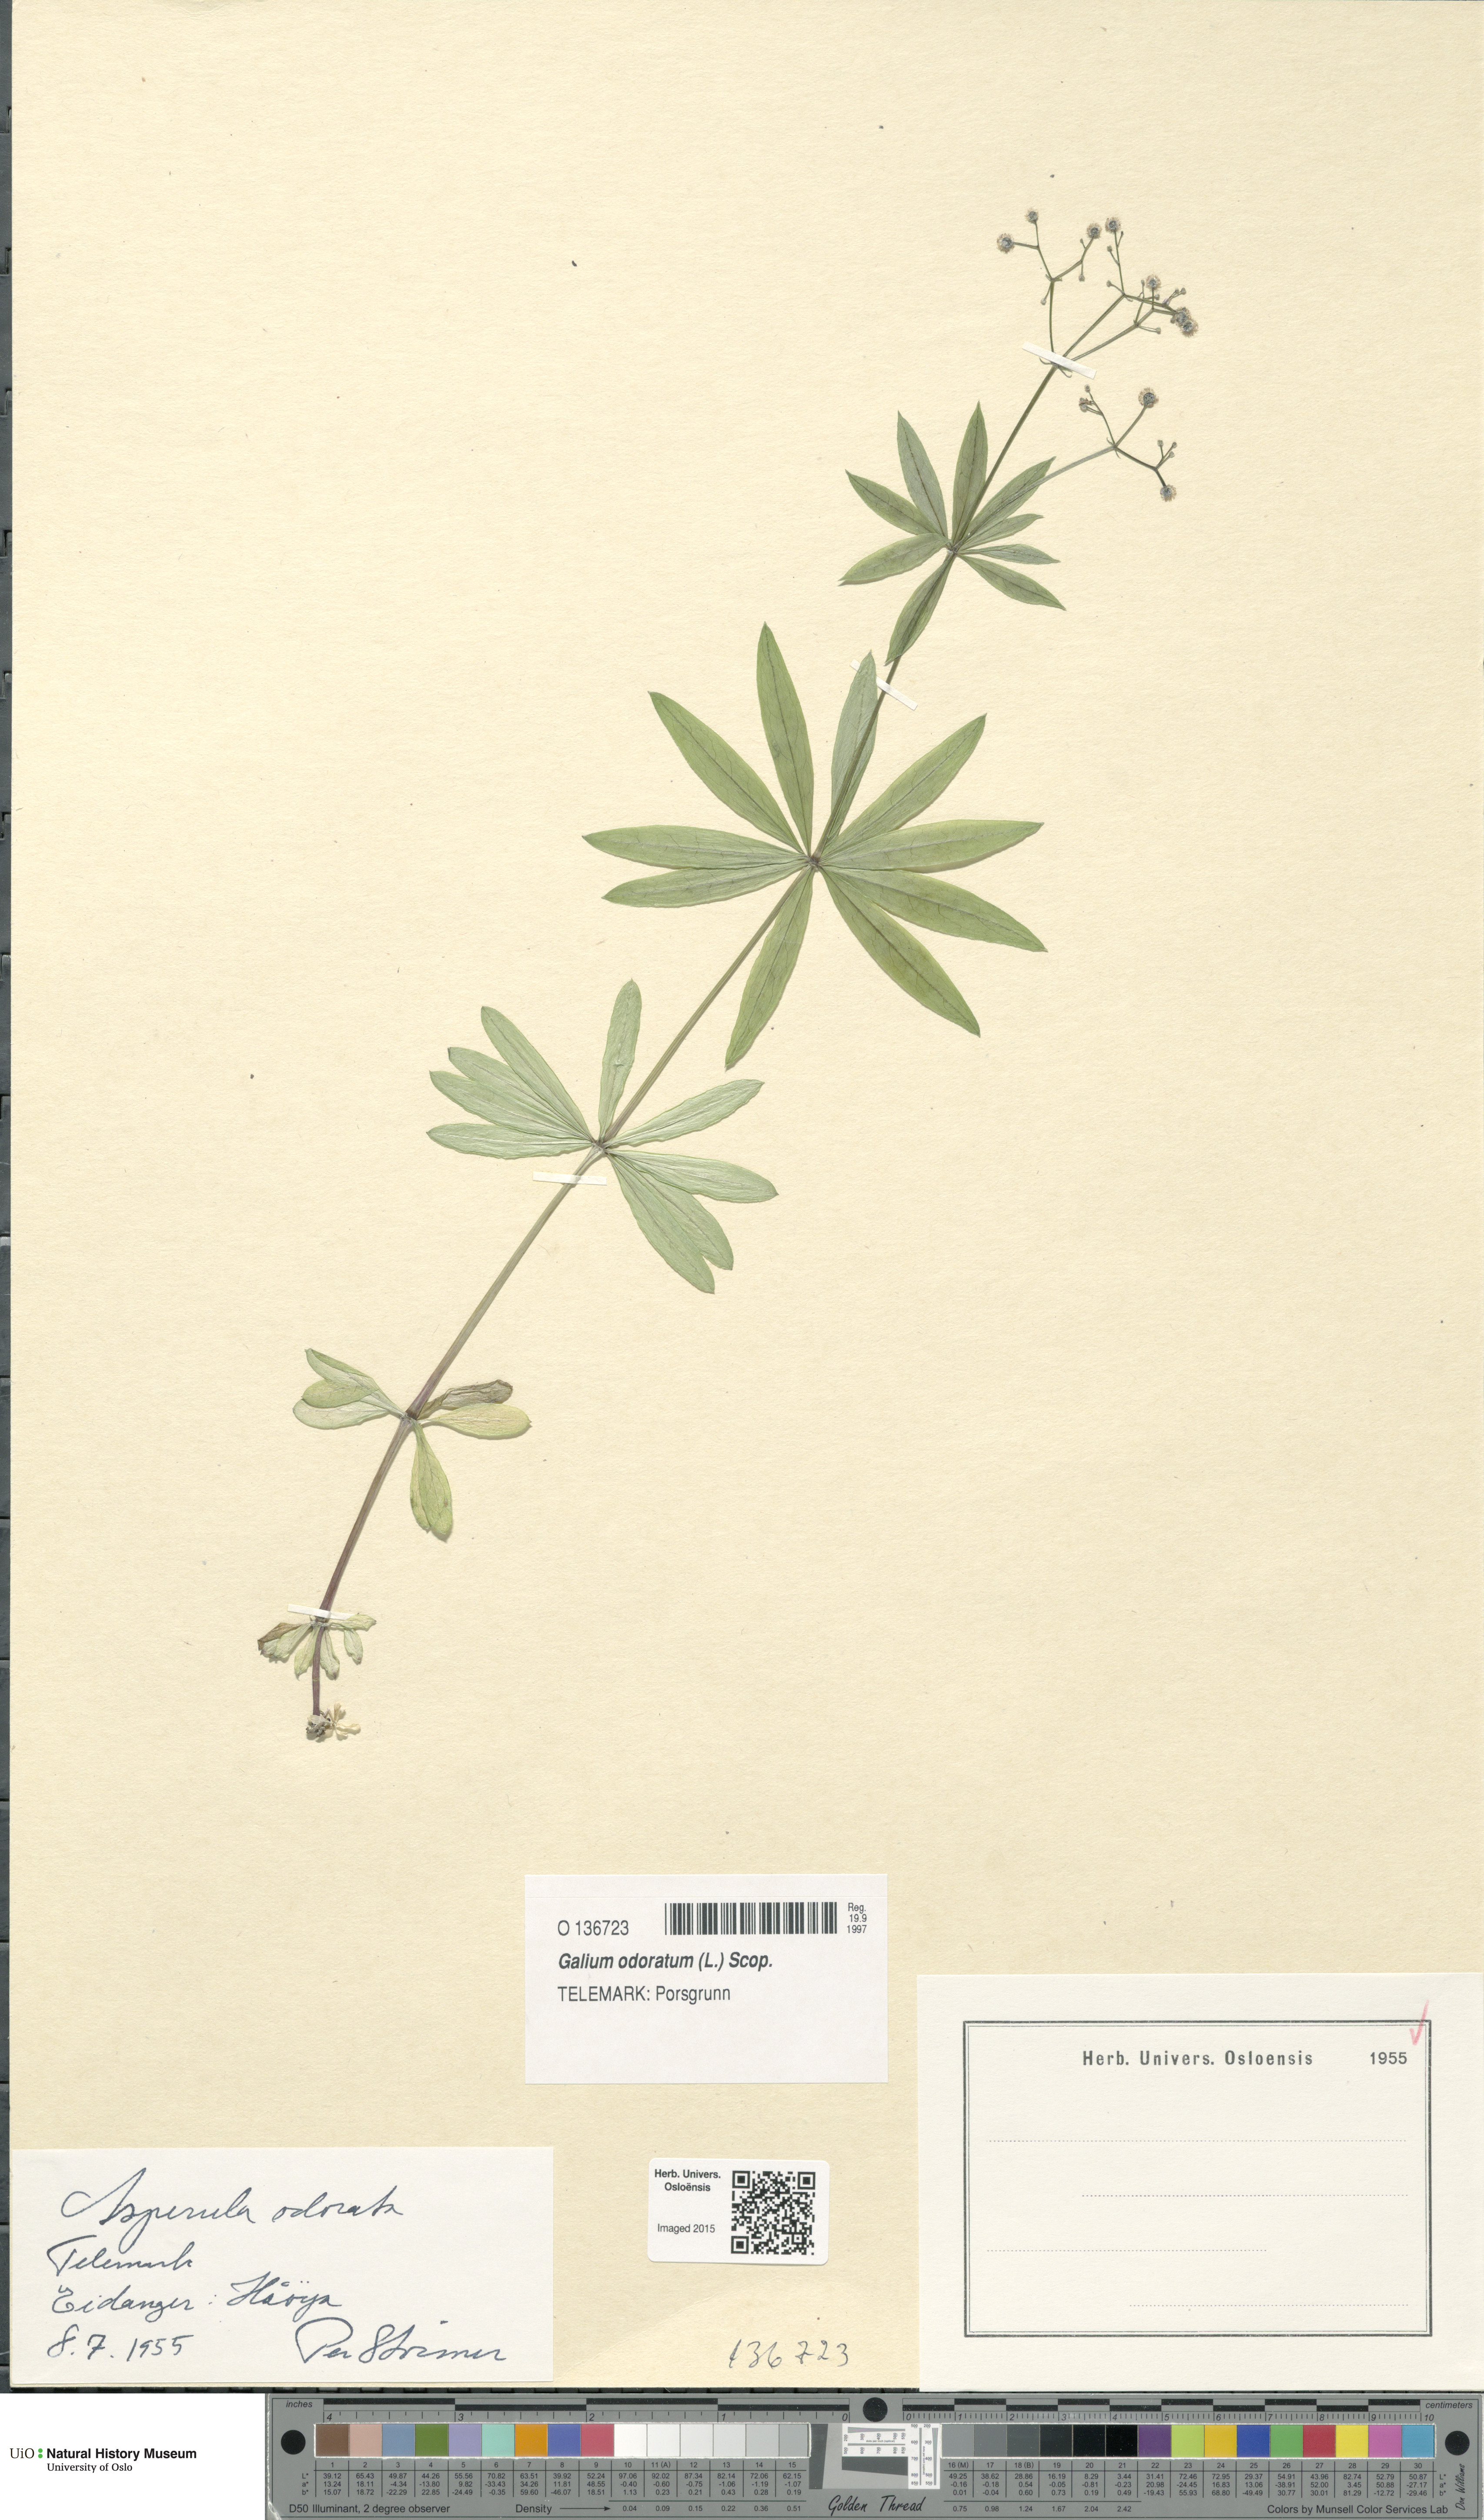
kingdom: Plantae
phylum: Tracheophyta
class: Magnoliopsida
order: Gentianales
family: Rubiaceae
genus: Galium
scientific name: Galium odoratum
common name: Sweet woodruff
